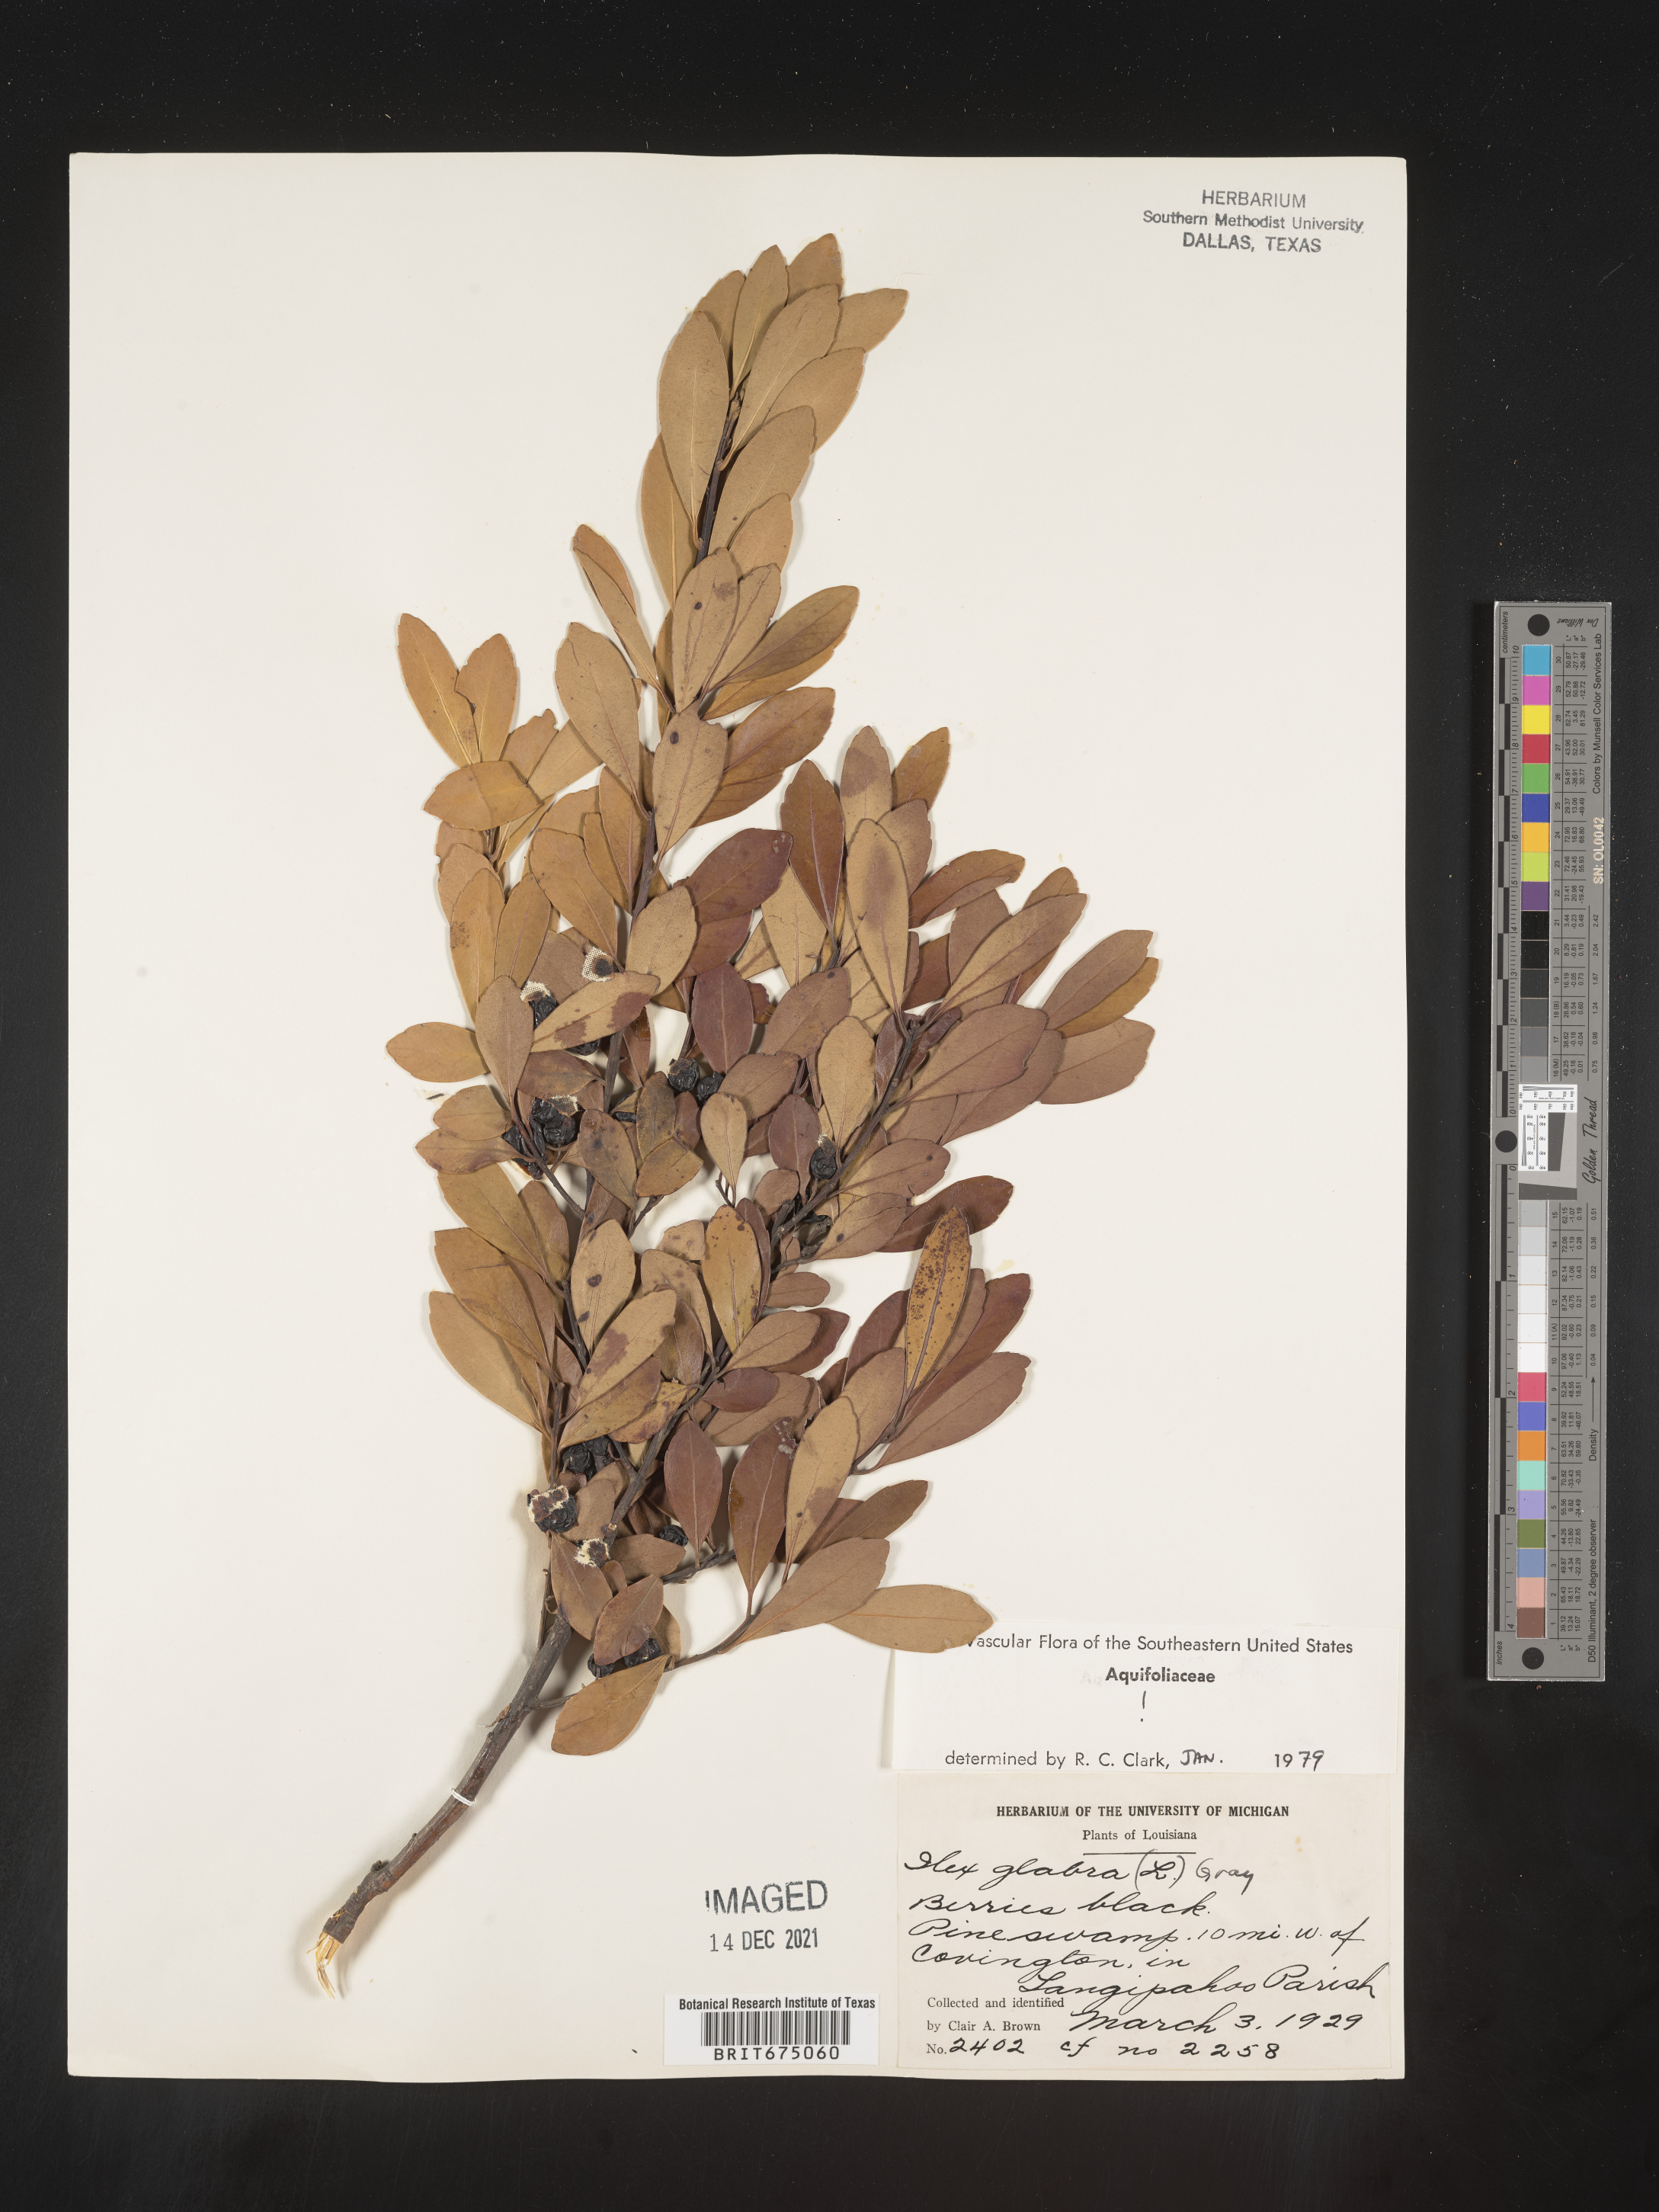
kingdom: Plantae
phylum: Tracheophyta
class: Magnoliopsida
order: Aquifoliales
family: Aquifoliaceae
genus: Ilex
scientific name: Ilex glabra
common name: Bitter gallberry
